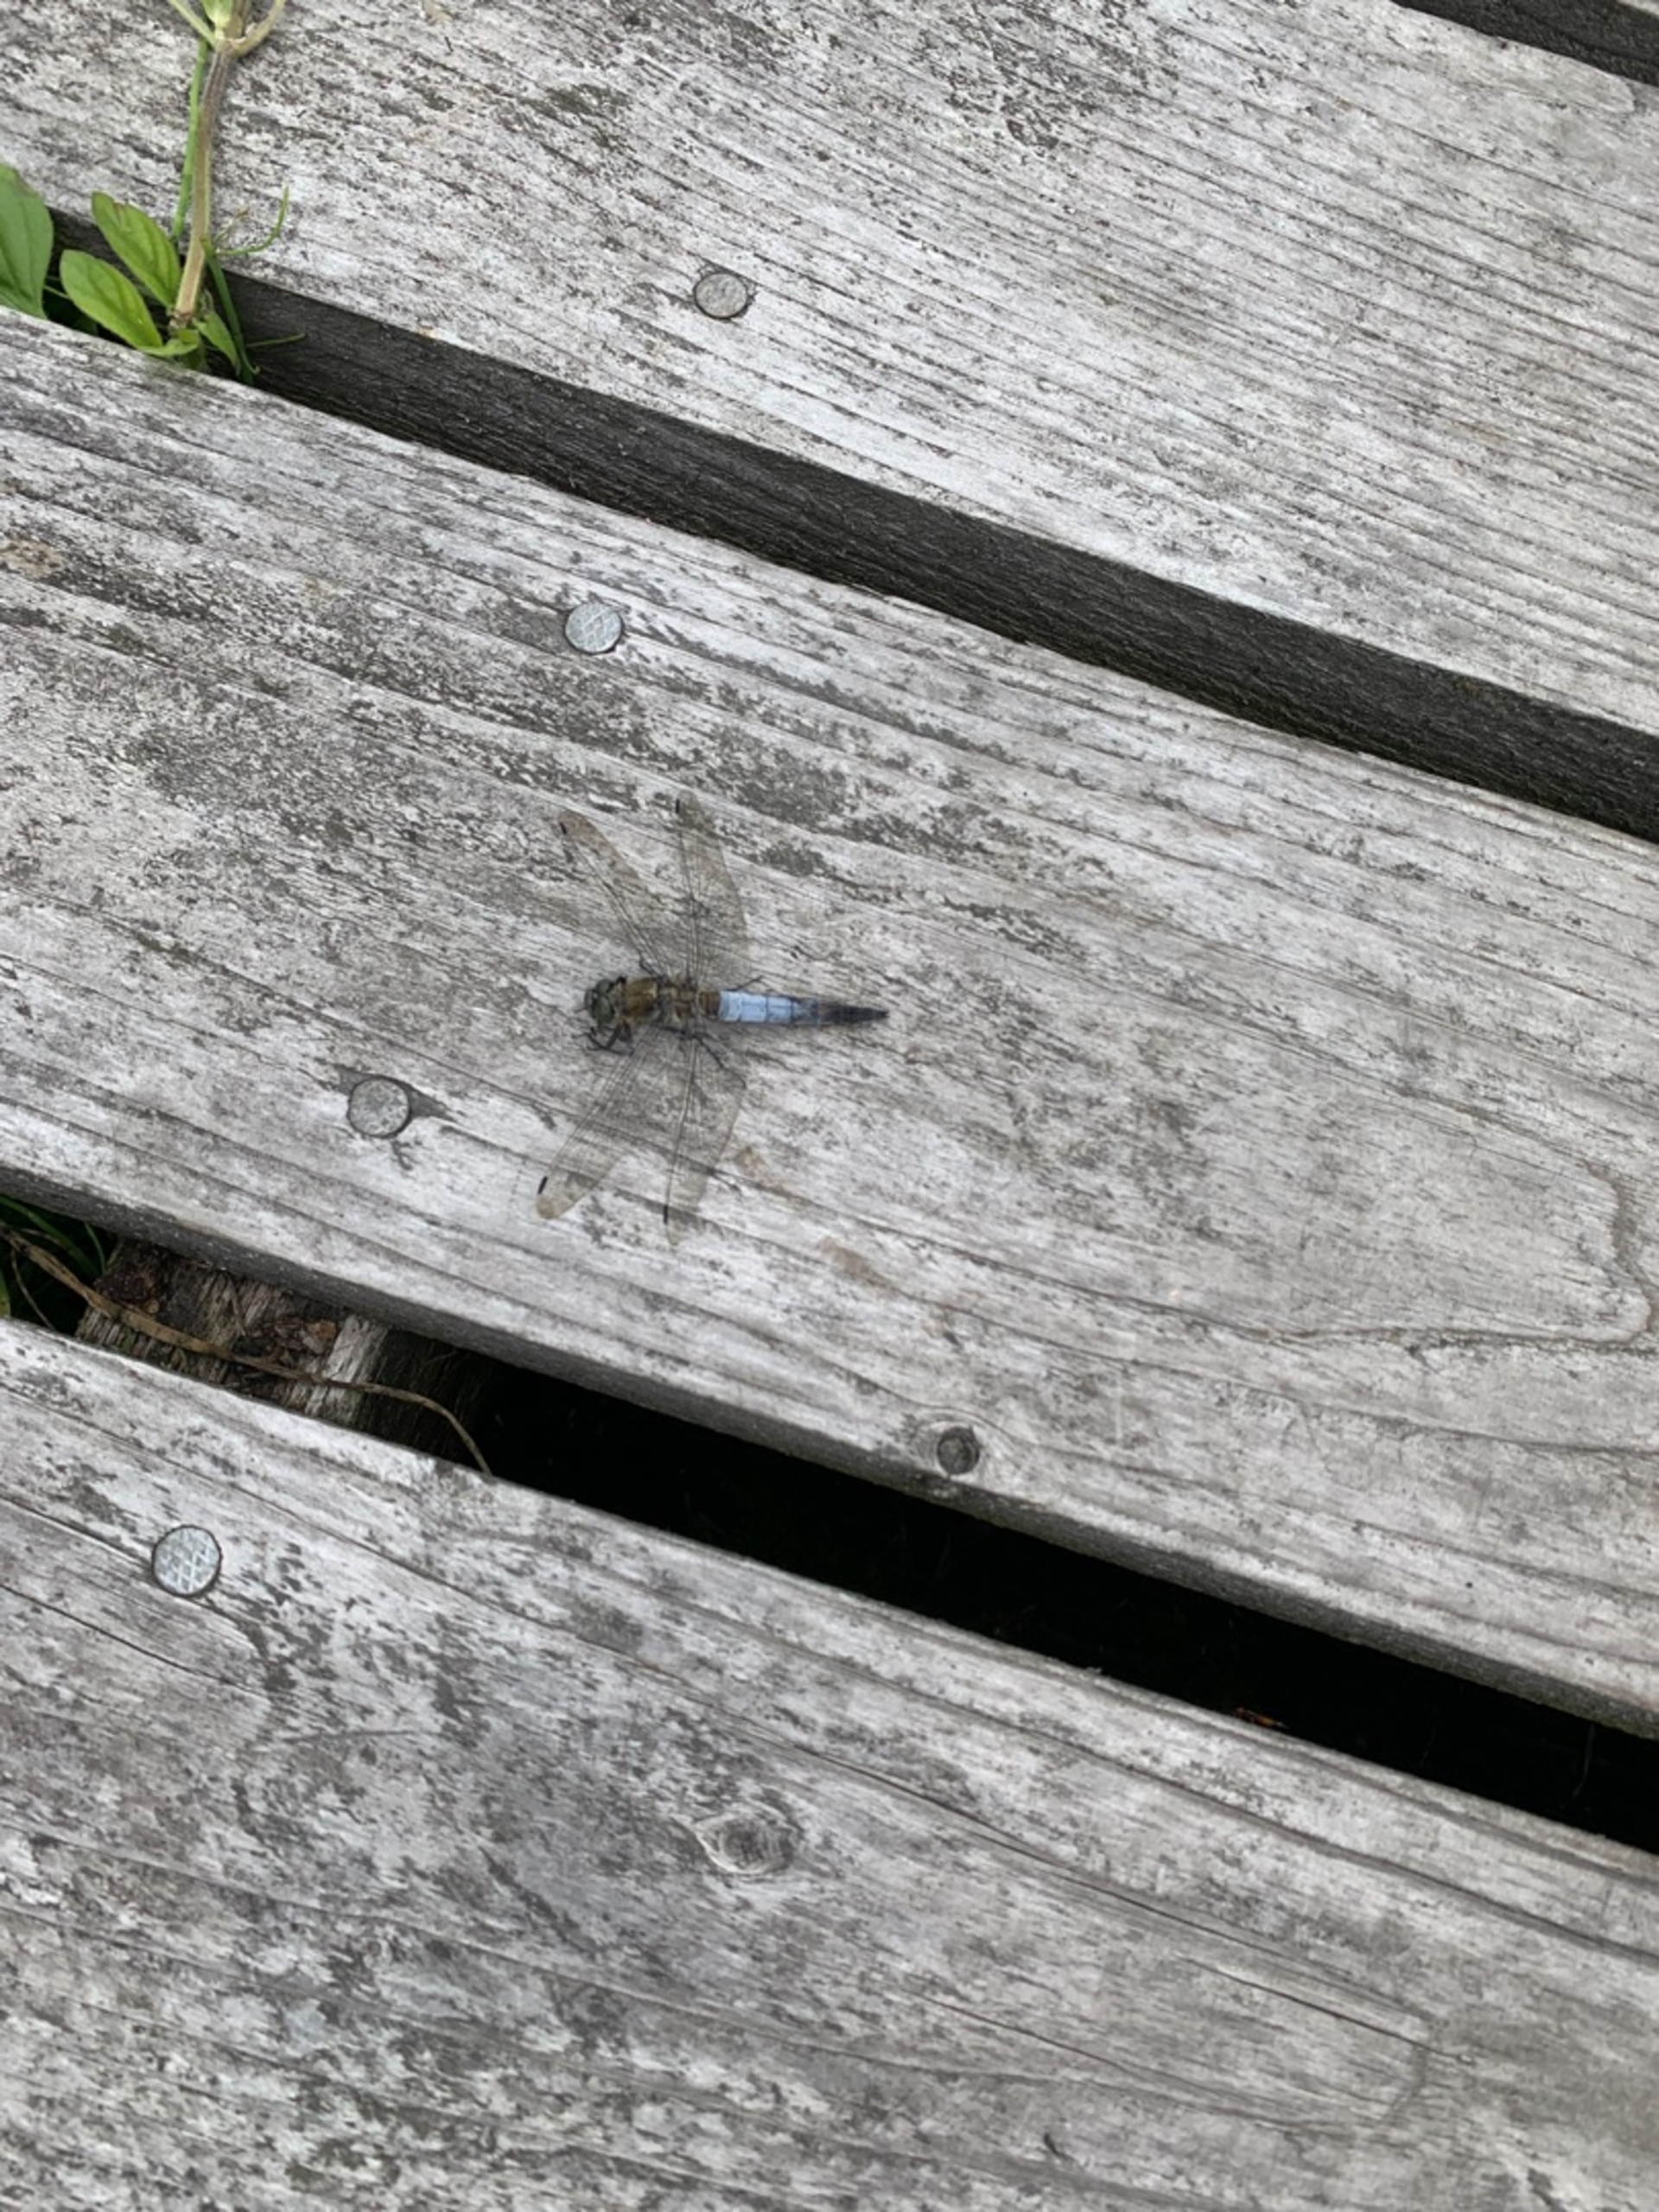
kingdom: Animalia
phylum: Arthropoda
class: Insecta
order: Odonata
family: Libellulidae
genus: Orthetrum
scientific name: Orthetrum cancellatum
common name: Stor blåpil
